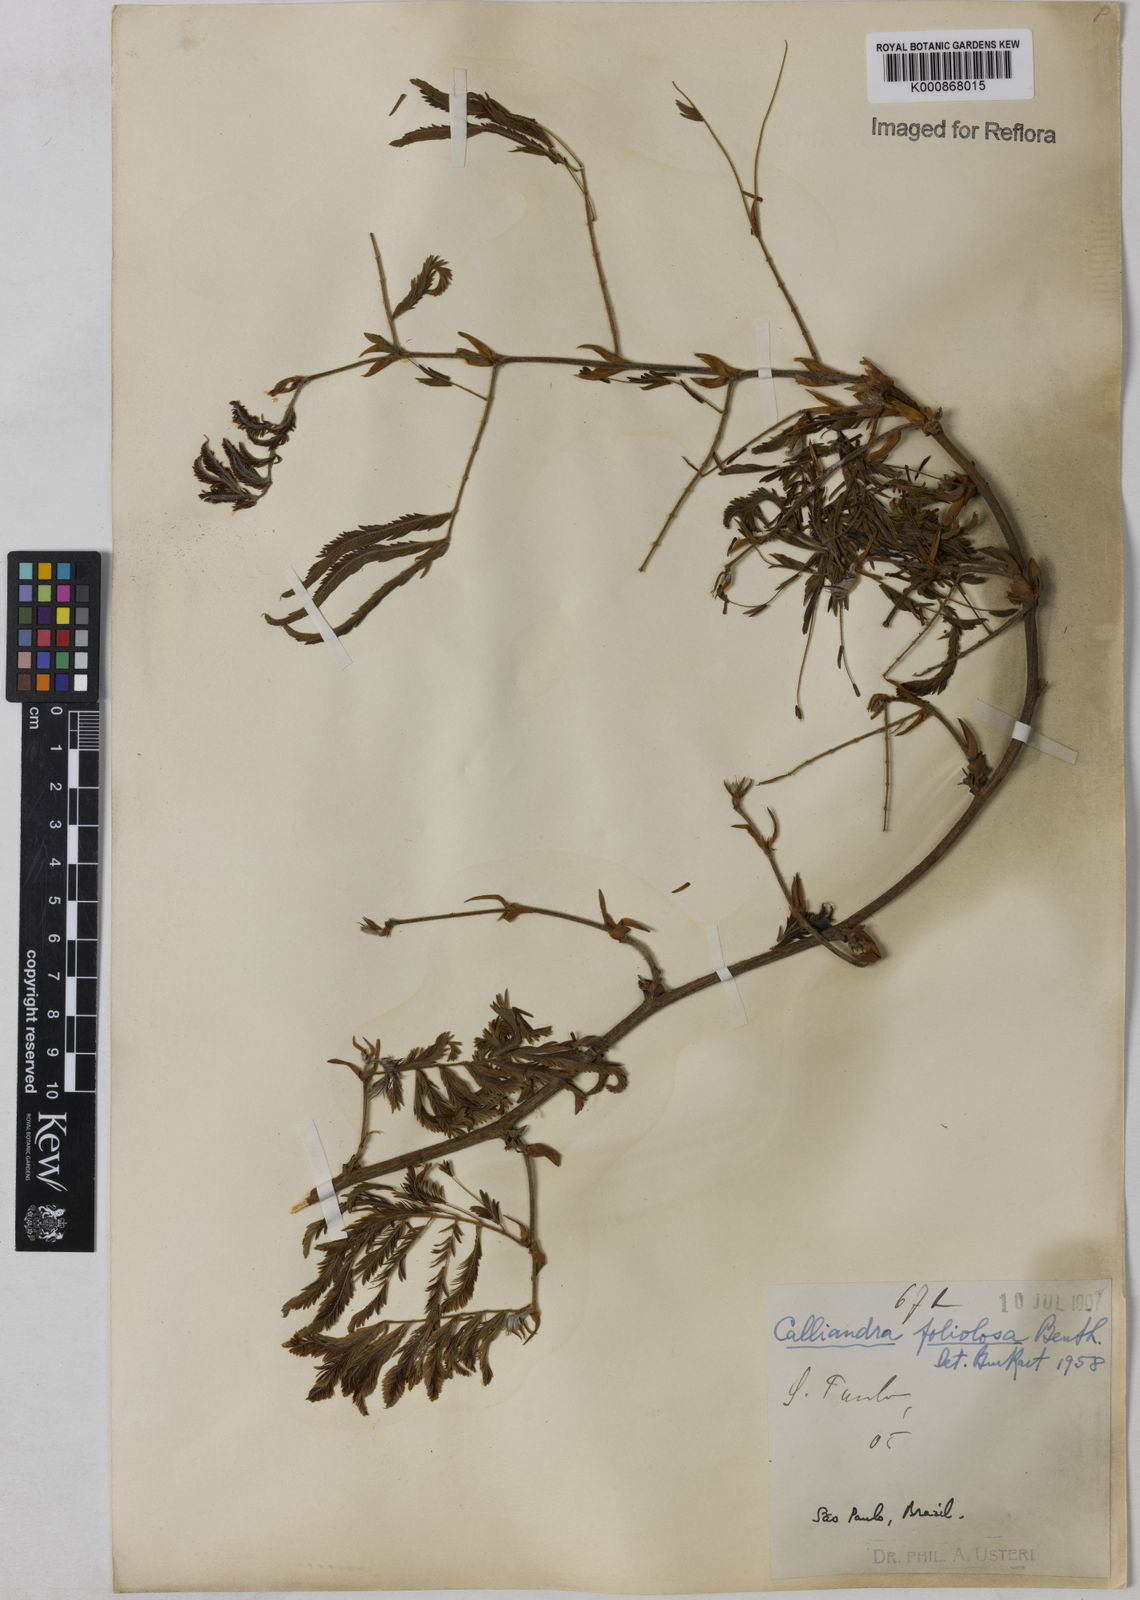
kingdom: Plantae
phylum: Tracheophyta
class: Magnoliopsida
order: Fabales
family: Fabaceae
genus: Calliandra
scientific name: Calliandra foliolosa
